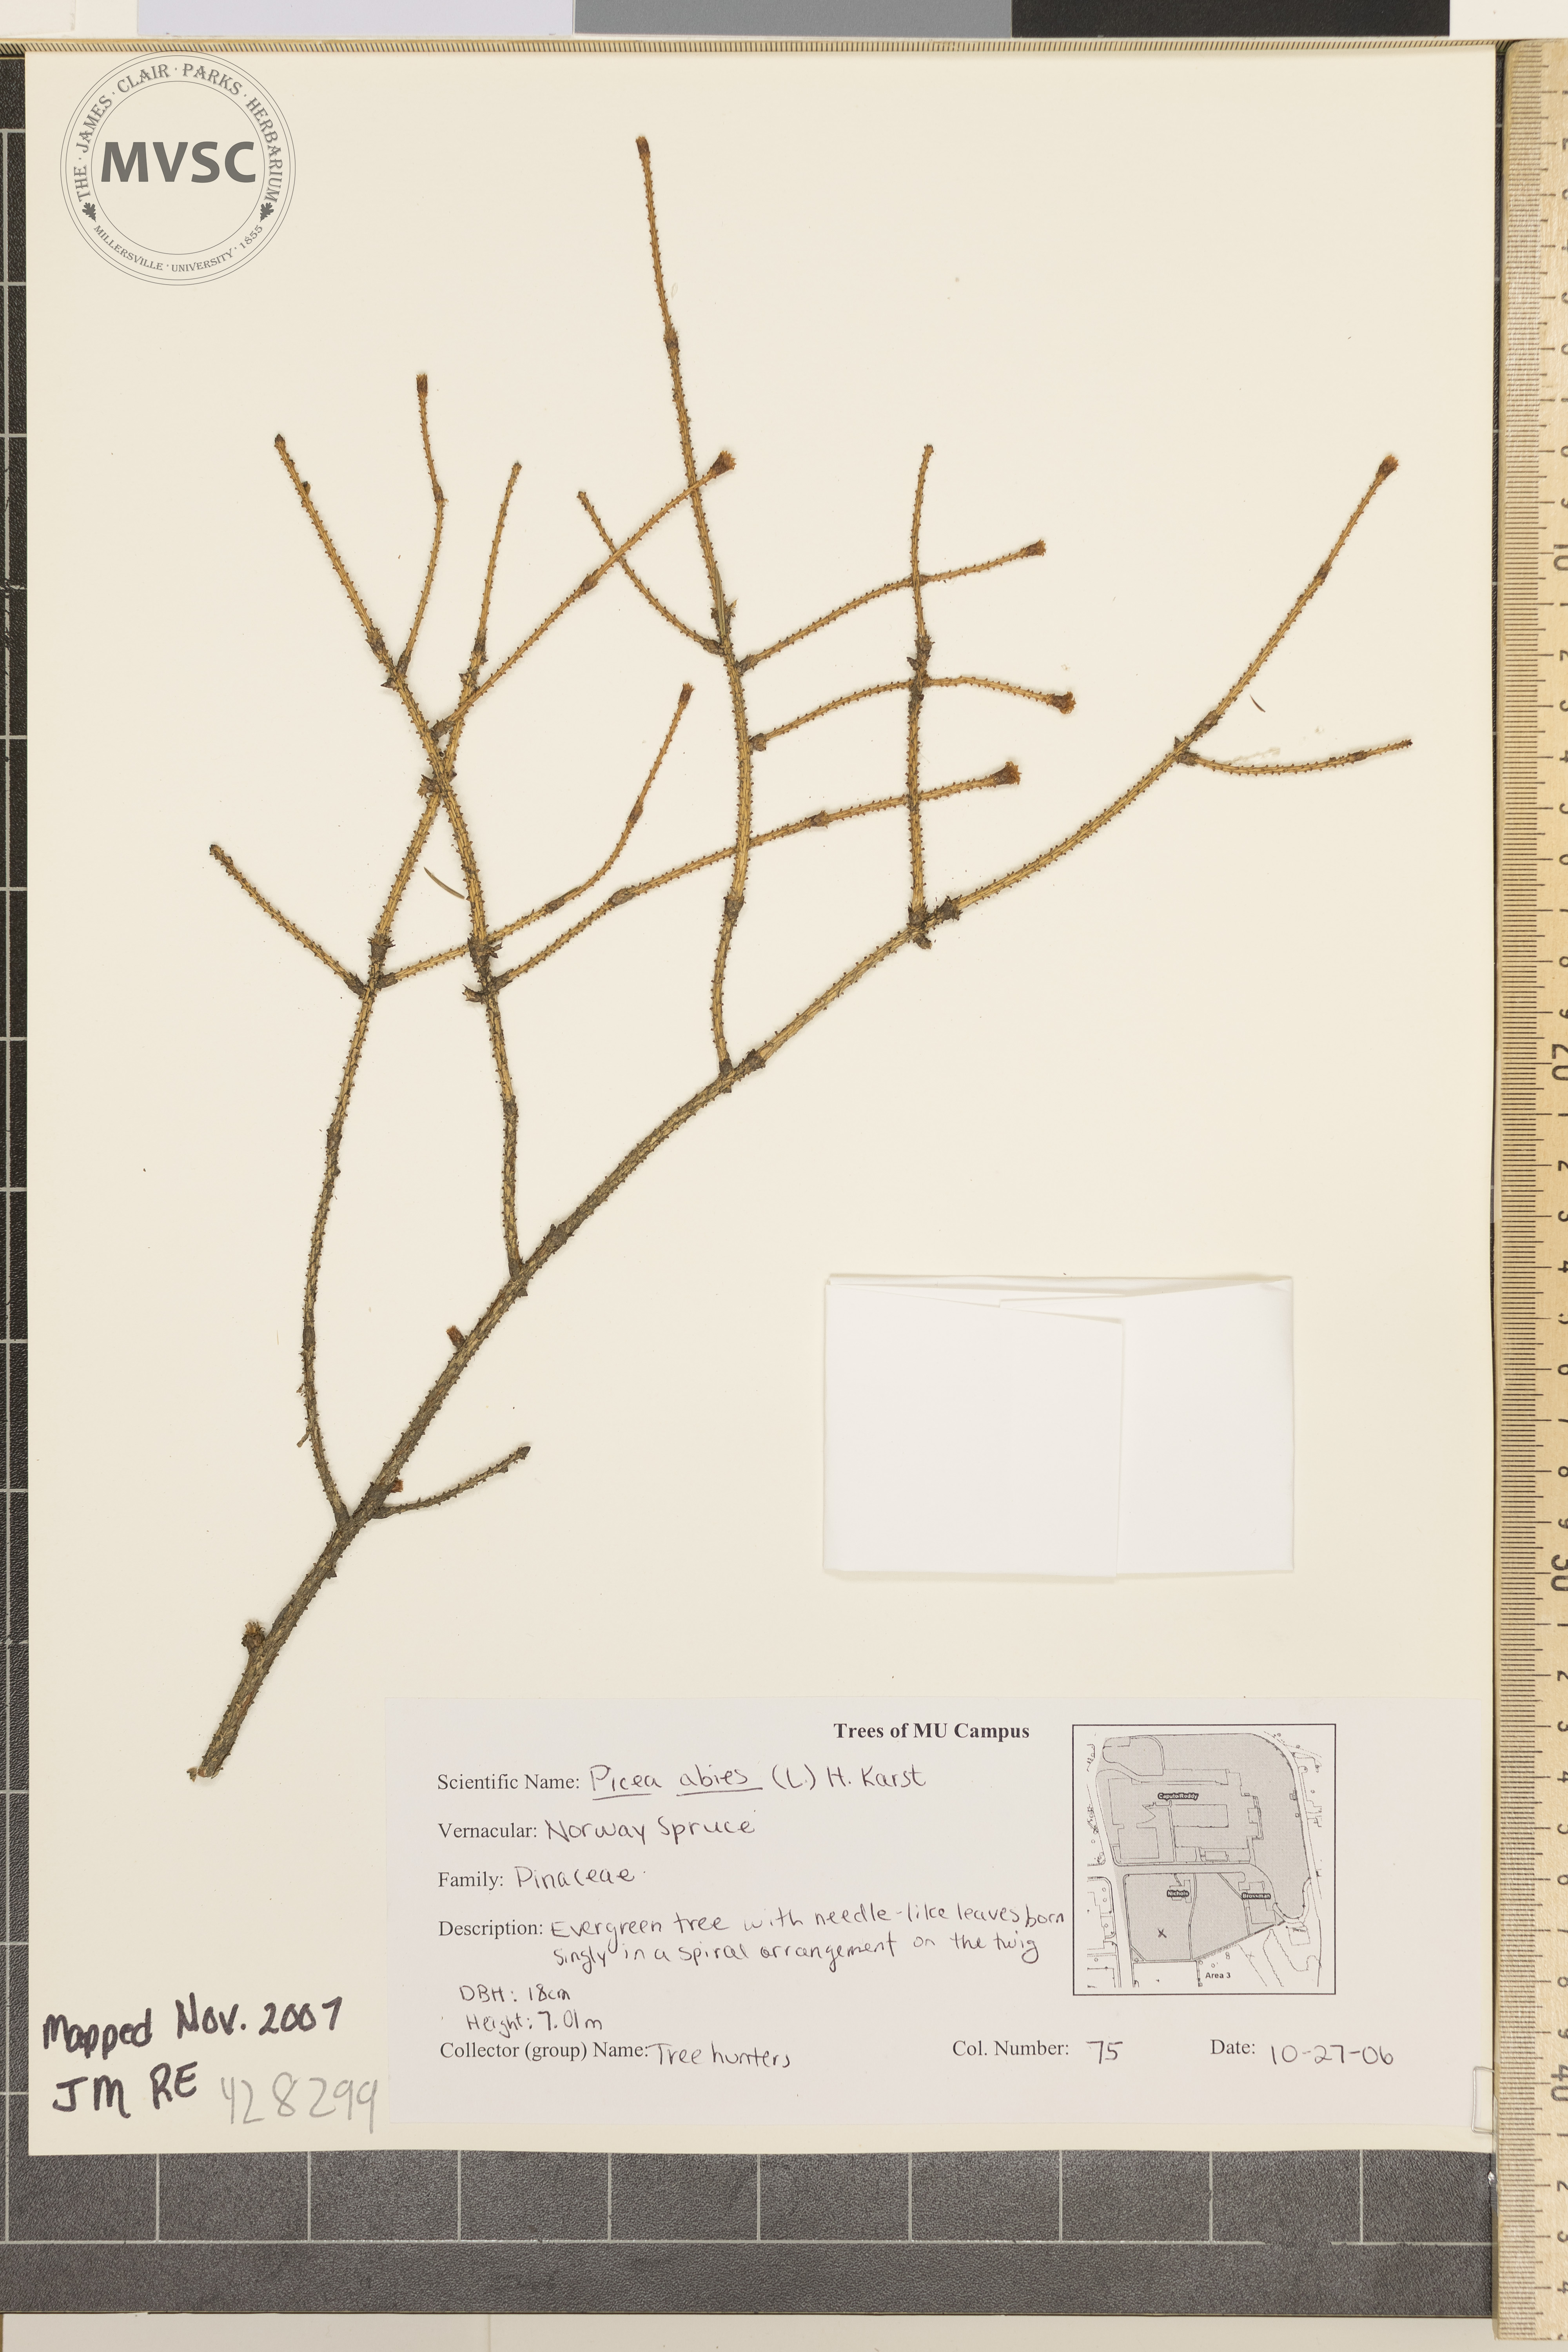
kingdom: Plantae
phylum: Tracheophyta
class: Pinopsida
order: Pinales
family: Pinaceae
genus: Picea
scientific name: Picea abies
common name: Norway Spruce
